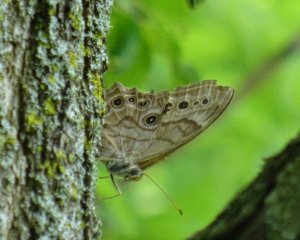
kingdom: Animalia
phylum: Arthropoda
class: Insecta
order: Lepidoptera
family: Nymphalidae
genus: Lethe
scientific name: Lethe anthedon
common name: Northern Pearly-Eye
